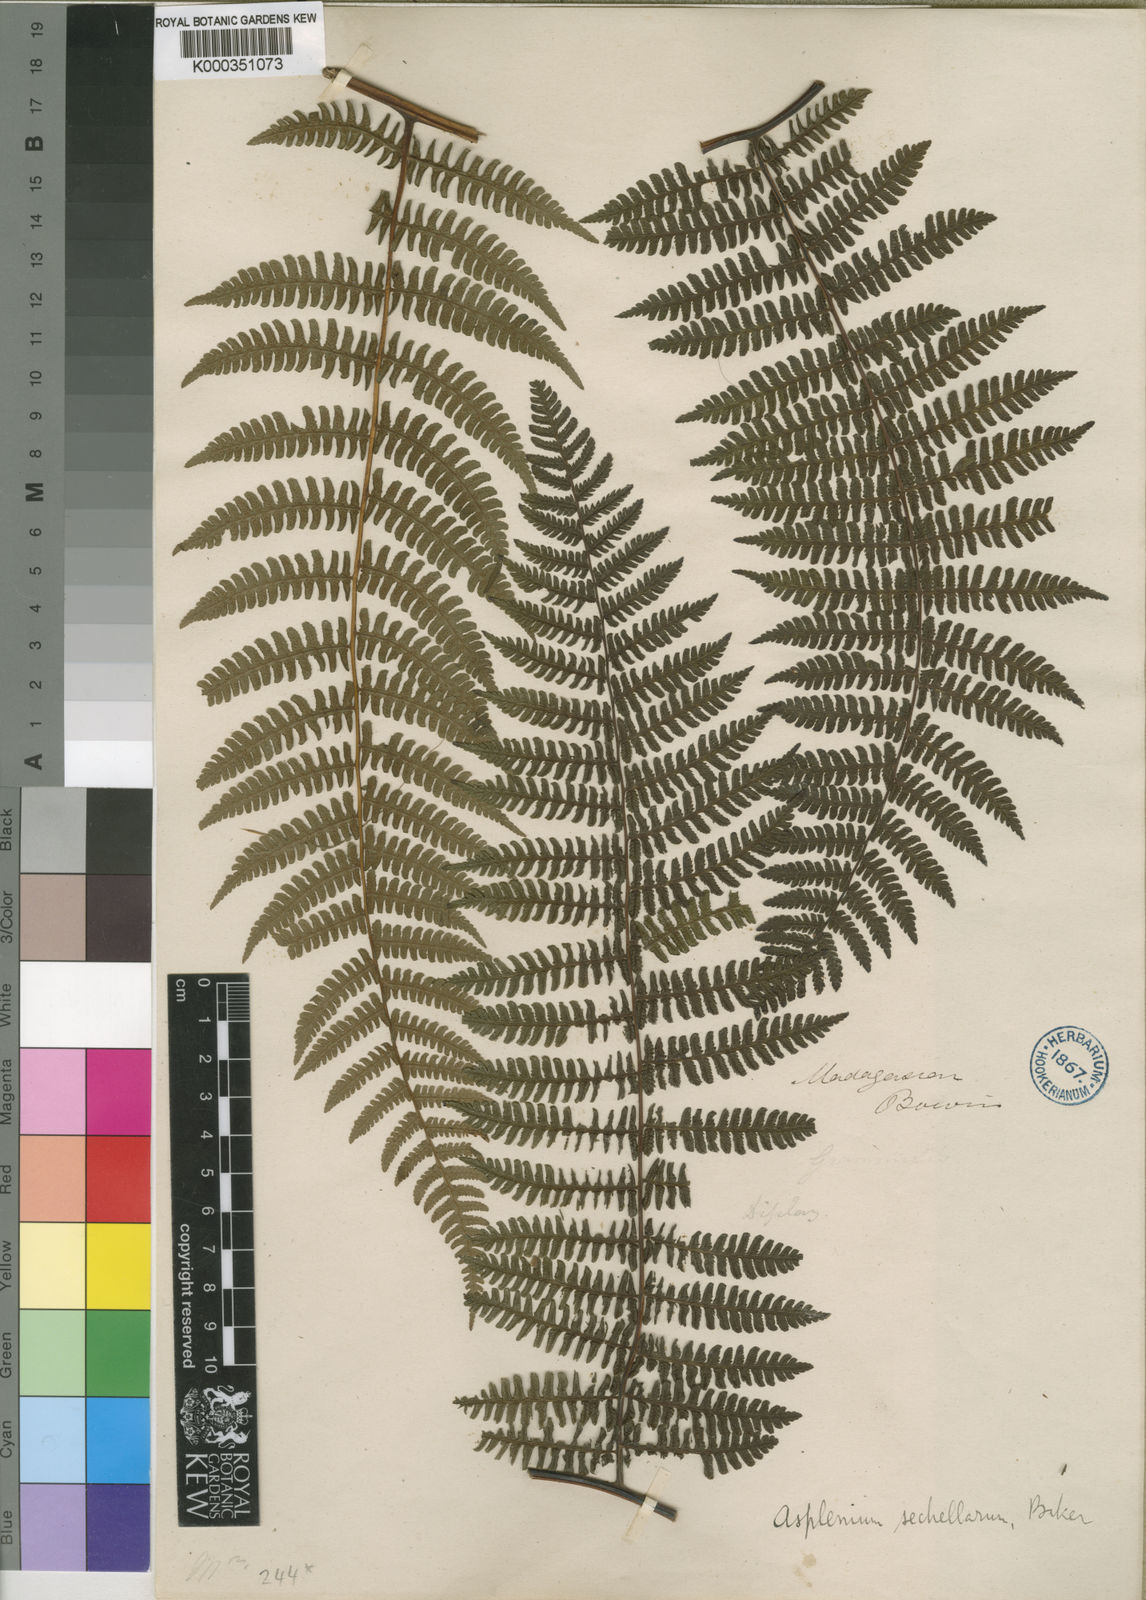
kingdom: Plantae
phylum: Tracheophyta
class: Polypodiopsida
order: Polypodiales
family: Athyriaceae
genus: Diplazium
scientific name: Diplazium polypodioides
